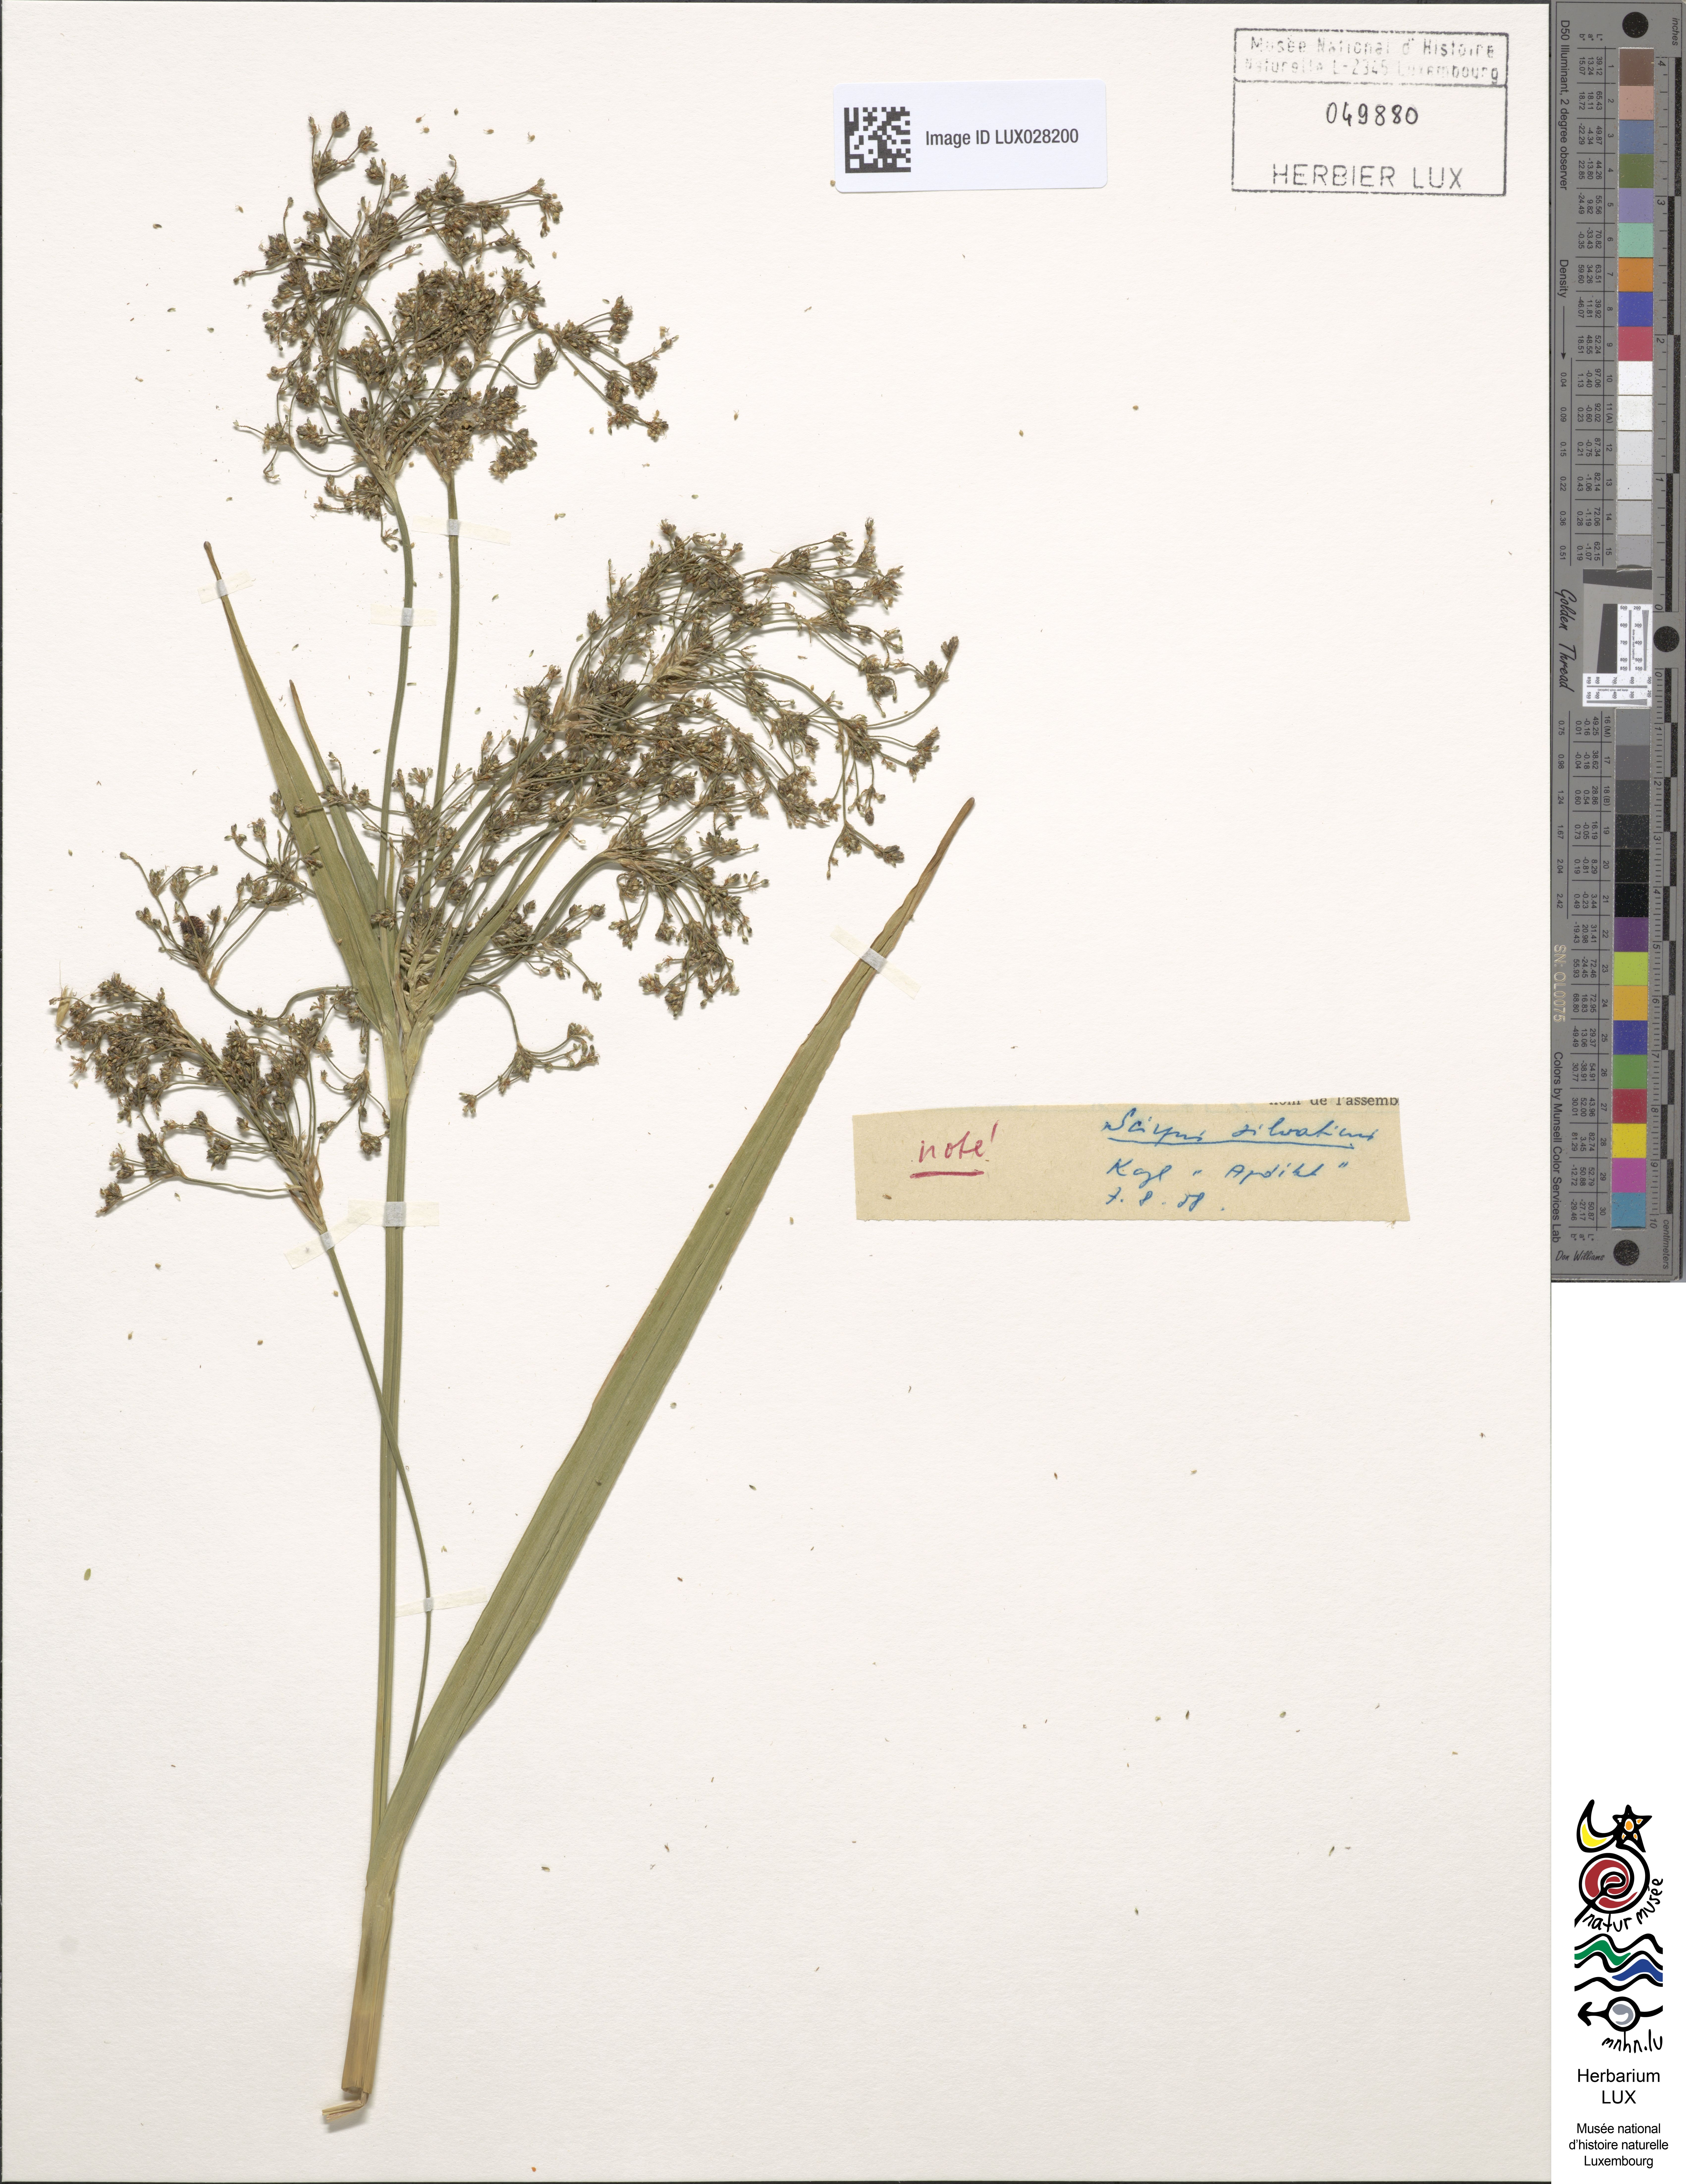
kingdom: Plantae
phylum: Tracheophyta
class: Liliopsida
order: Poales
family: Cyperaceae
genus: Scirpus
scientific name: Scirpus sylvaticus
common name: Wood club-rush
